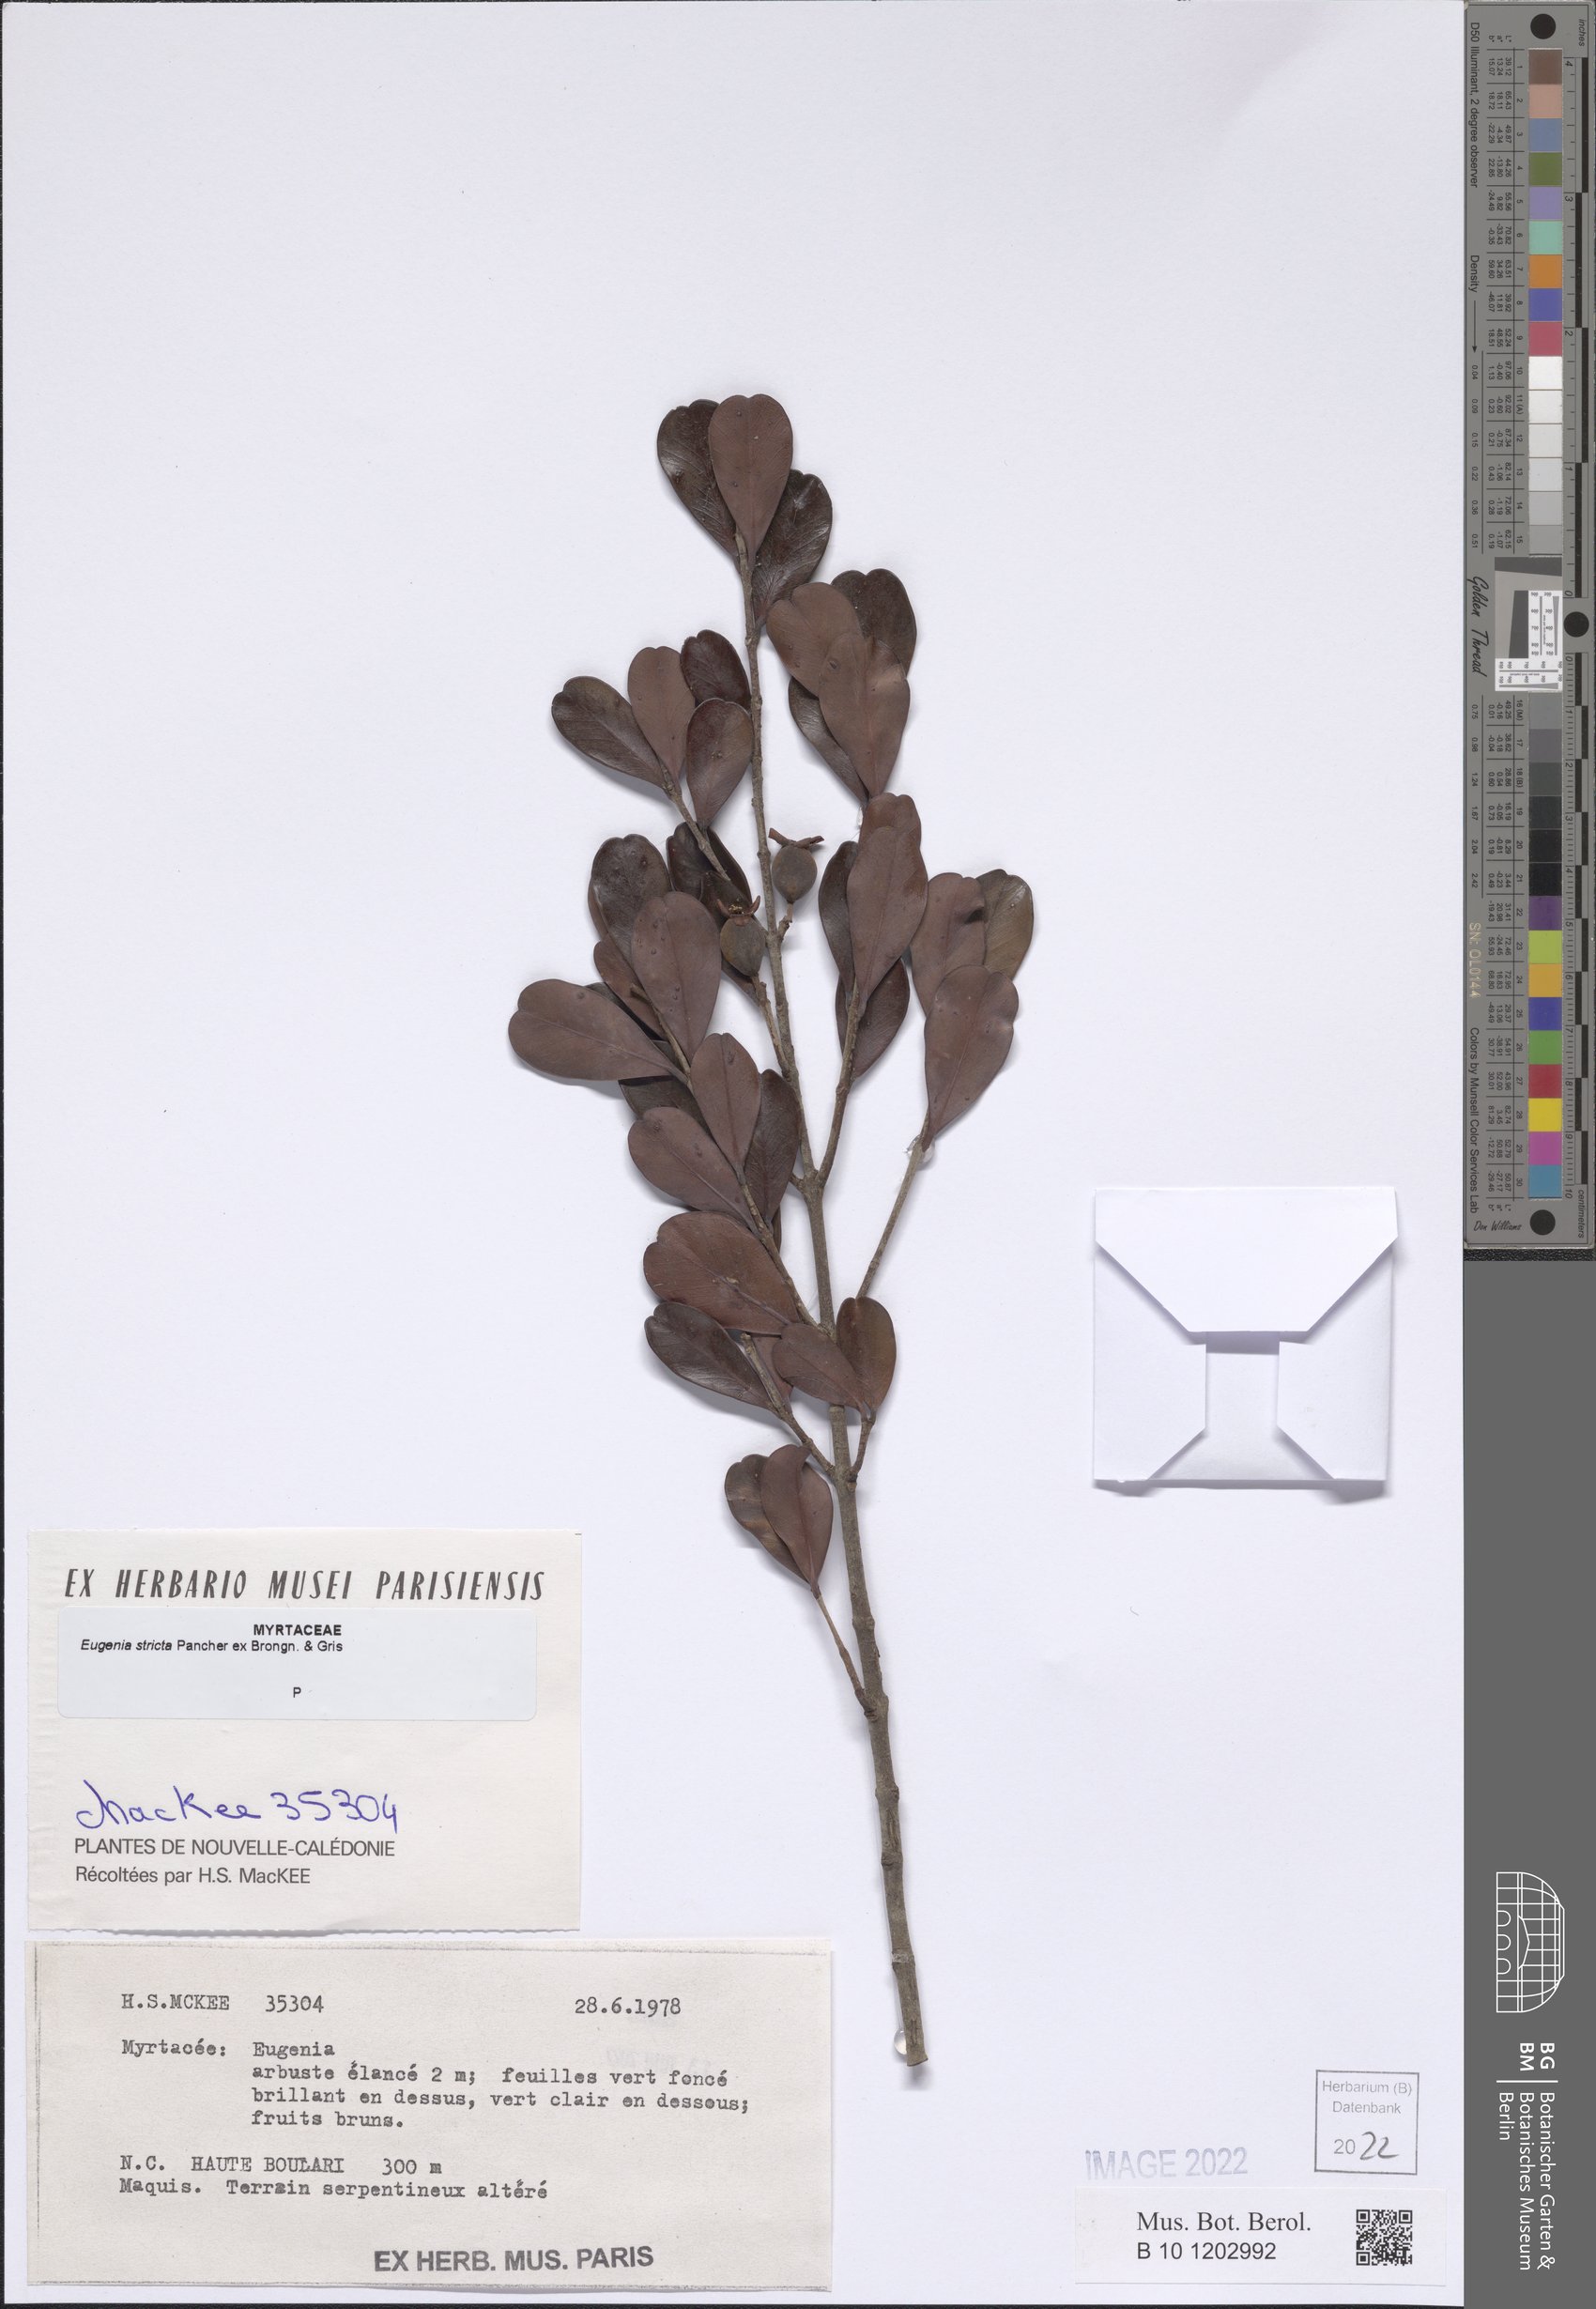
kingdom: Plantae
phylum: Tracheophyta
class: Magnoliopsida
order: Myrtales
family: Myrtaceae
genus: Austromyrtus
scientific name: Austromyrtus stricta
